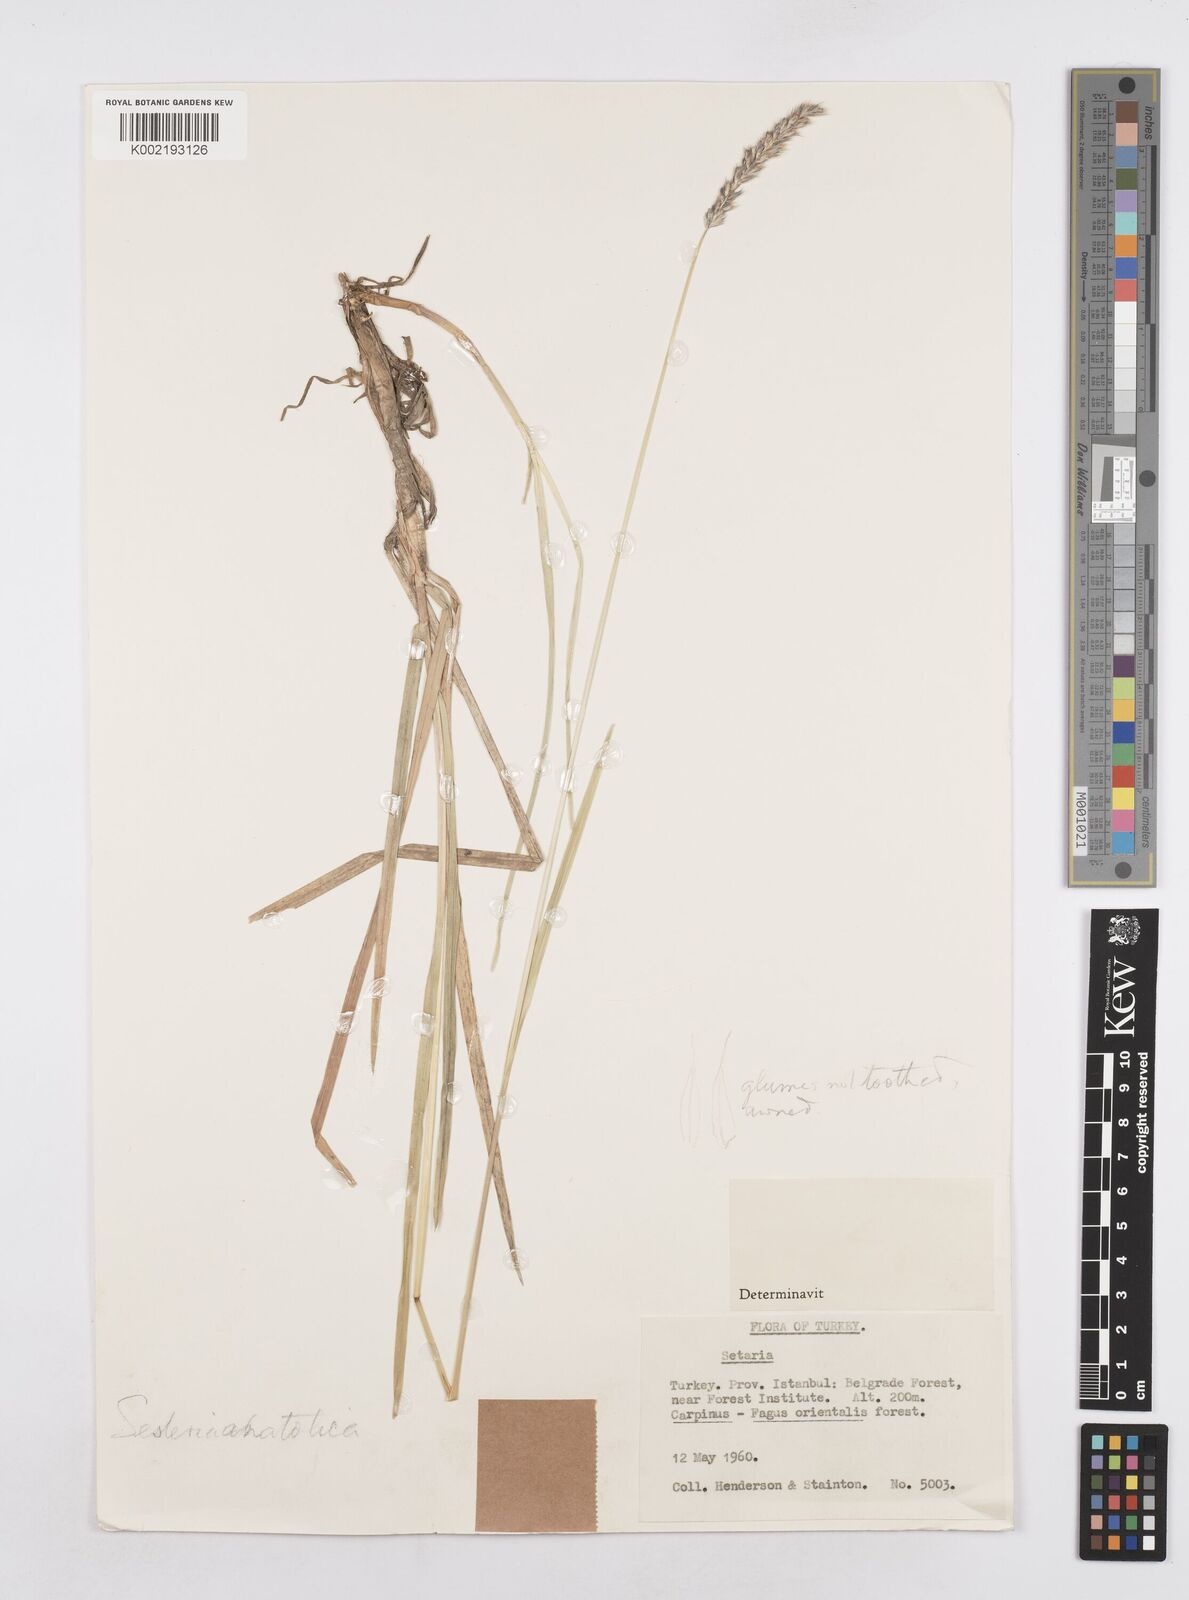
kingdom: Plantae
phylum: Tracheophyta
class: Liliopsida
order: Poales
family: Poaceae
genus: Sesleria
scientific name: Sesleria argentea
